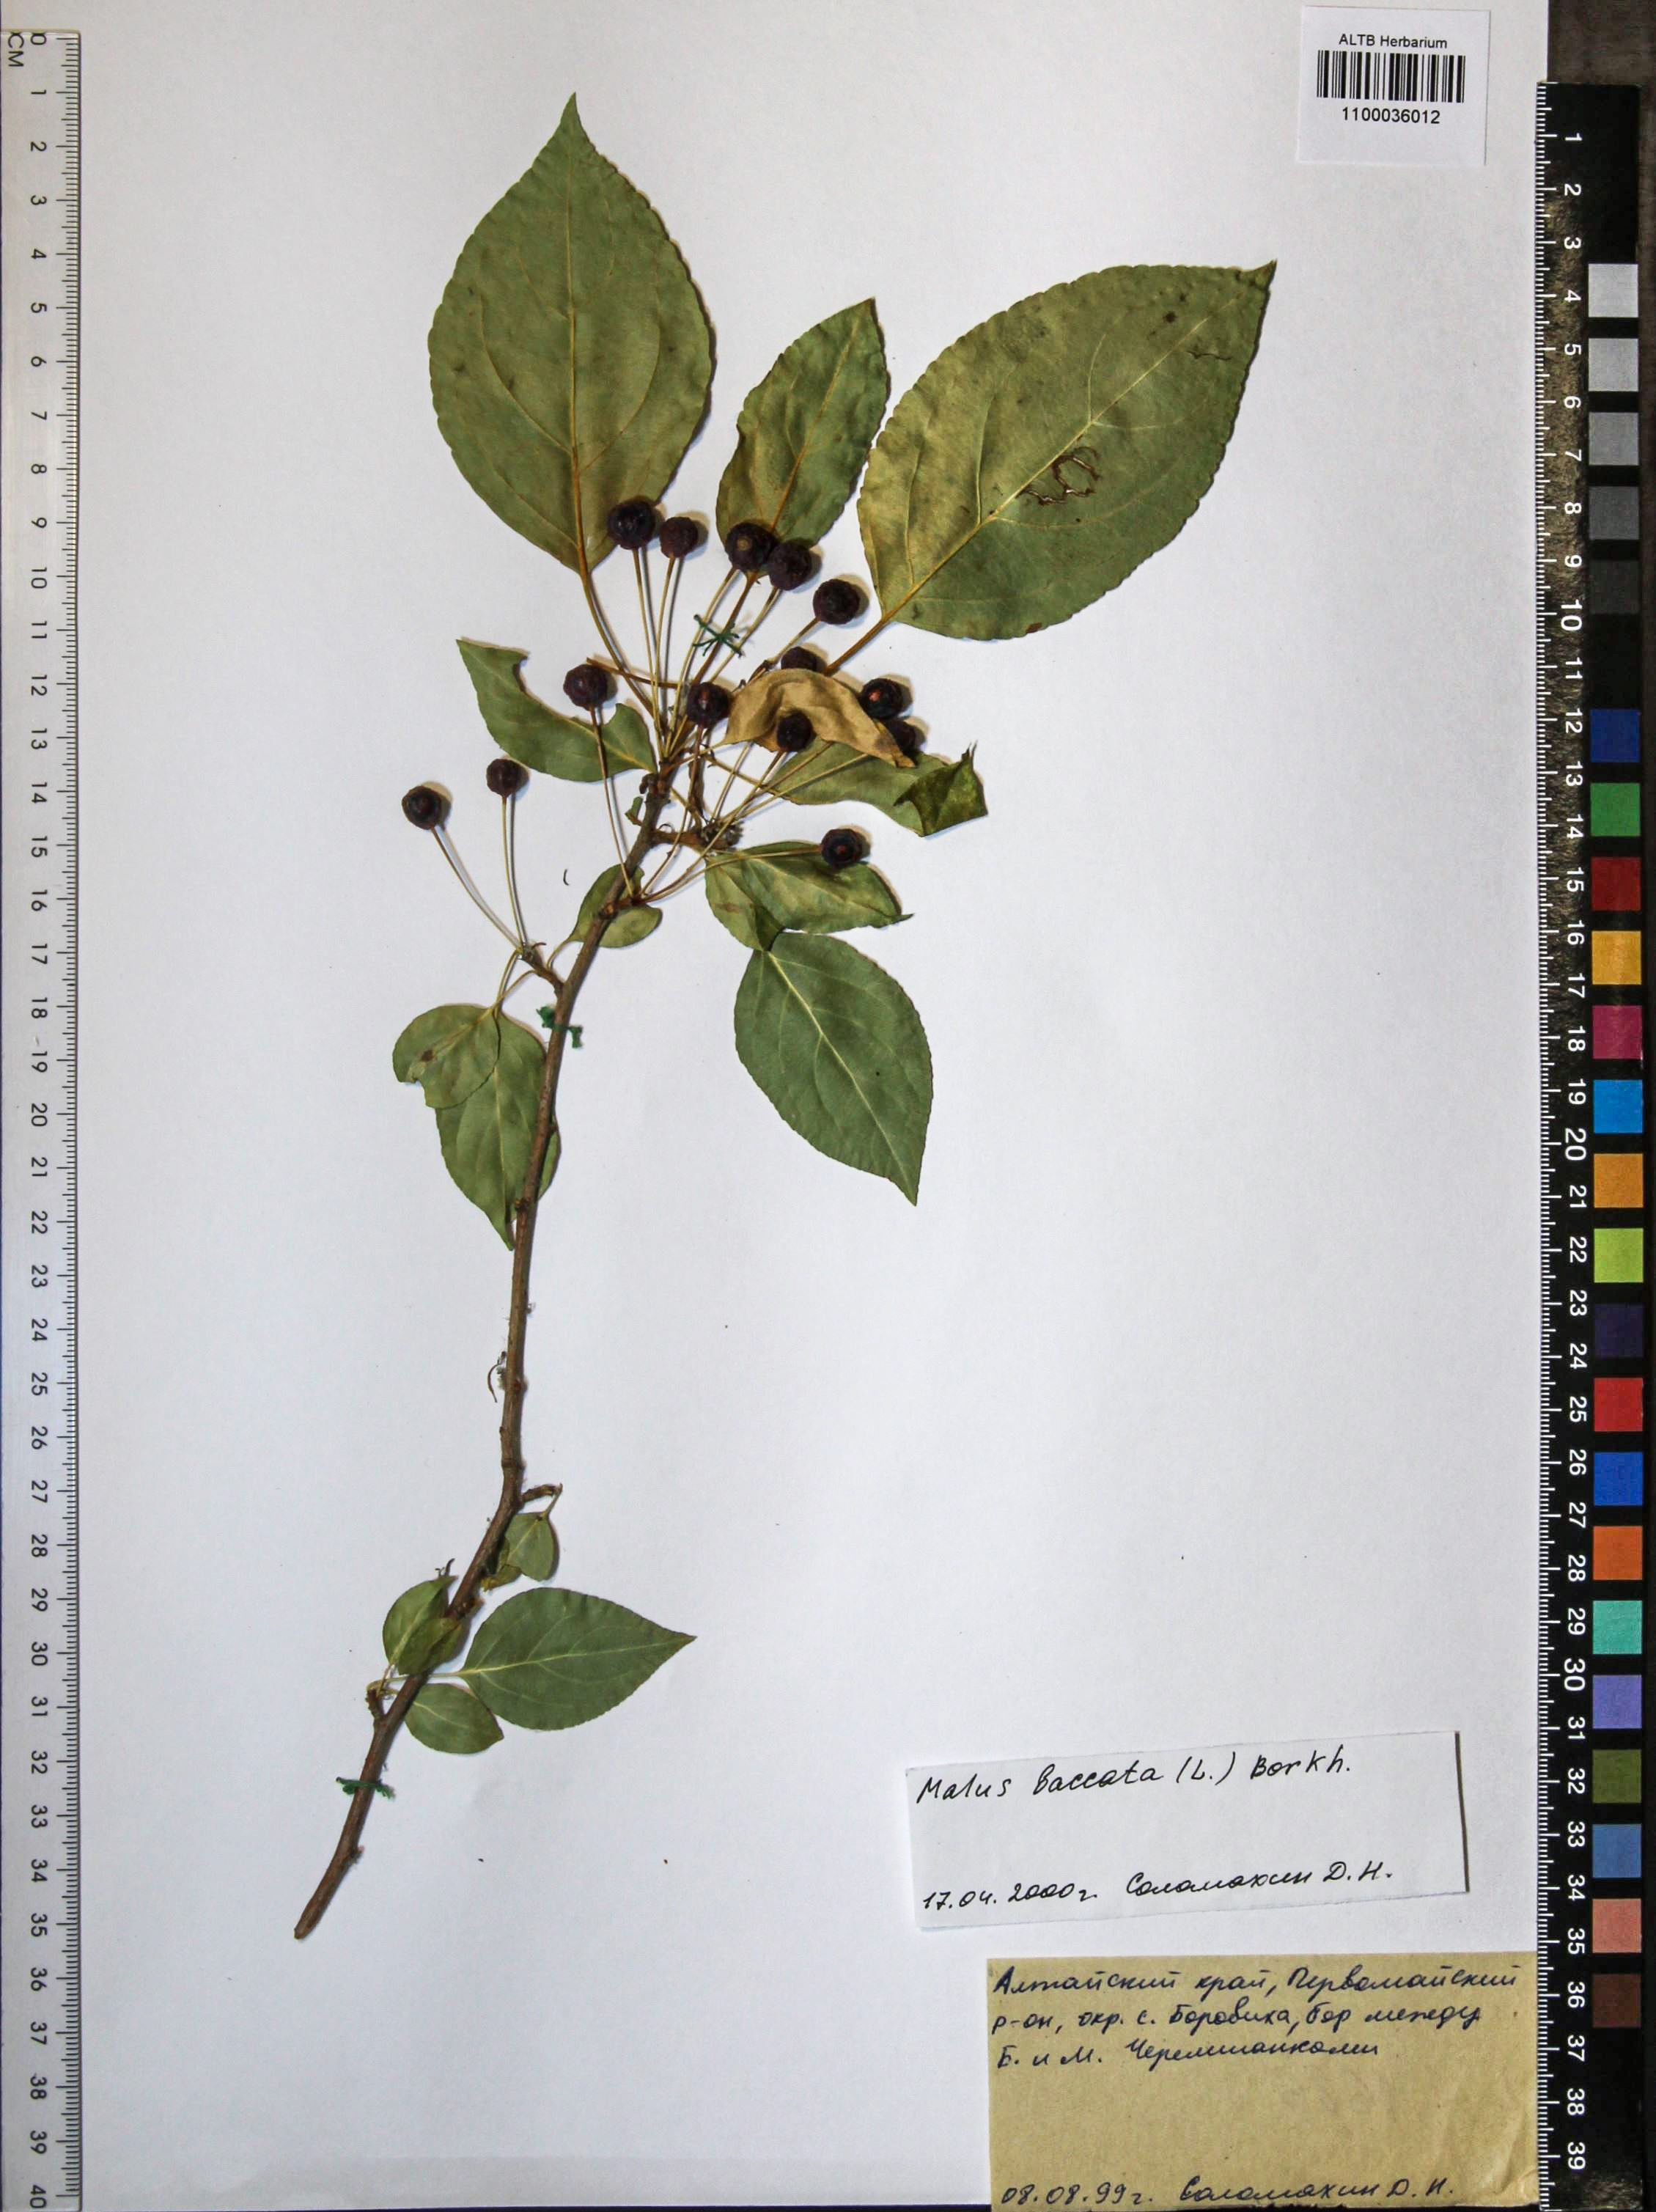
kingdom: Plantae
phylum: Tracheophyta
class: Magnoliopsida
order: Rosales
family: Rosaceae
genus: Malus
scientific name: Malus baccata
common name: Siberian crab
